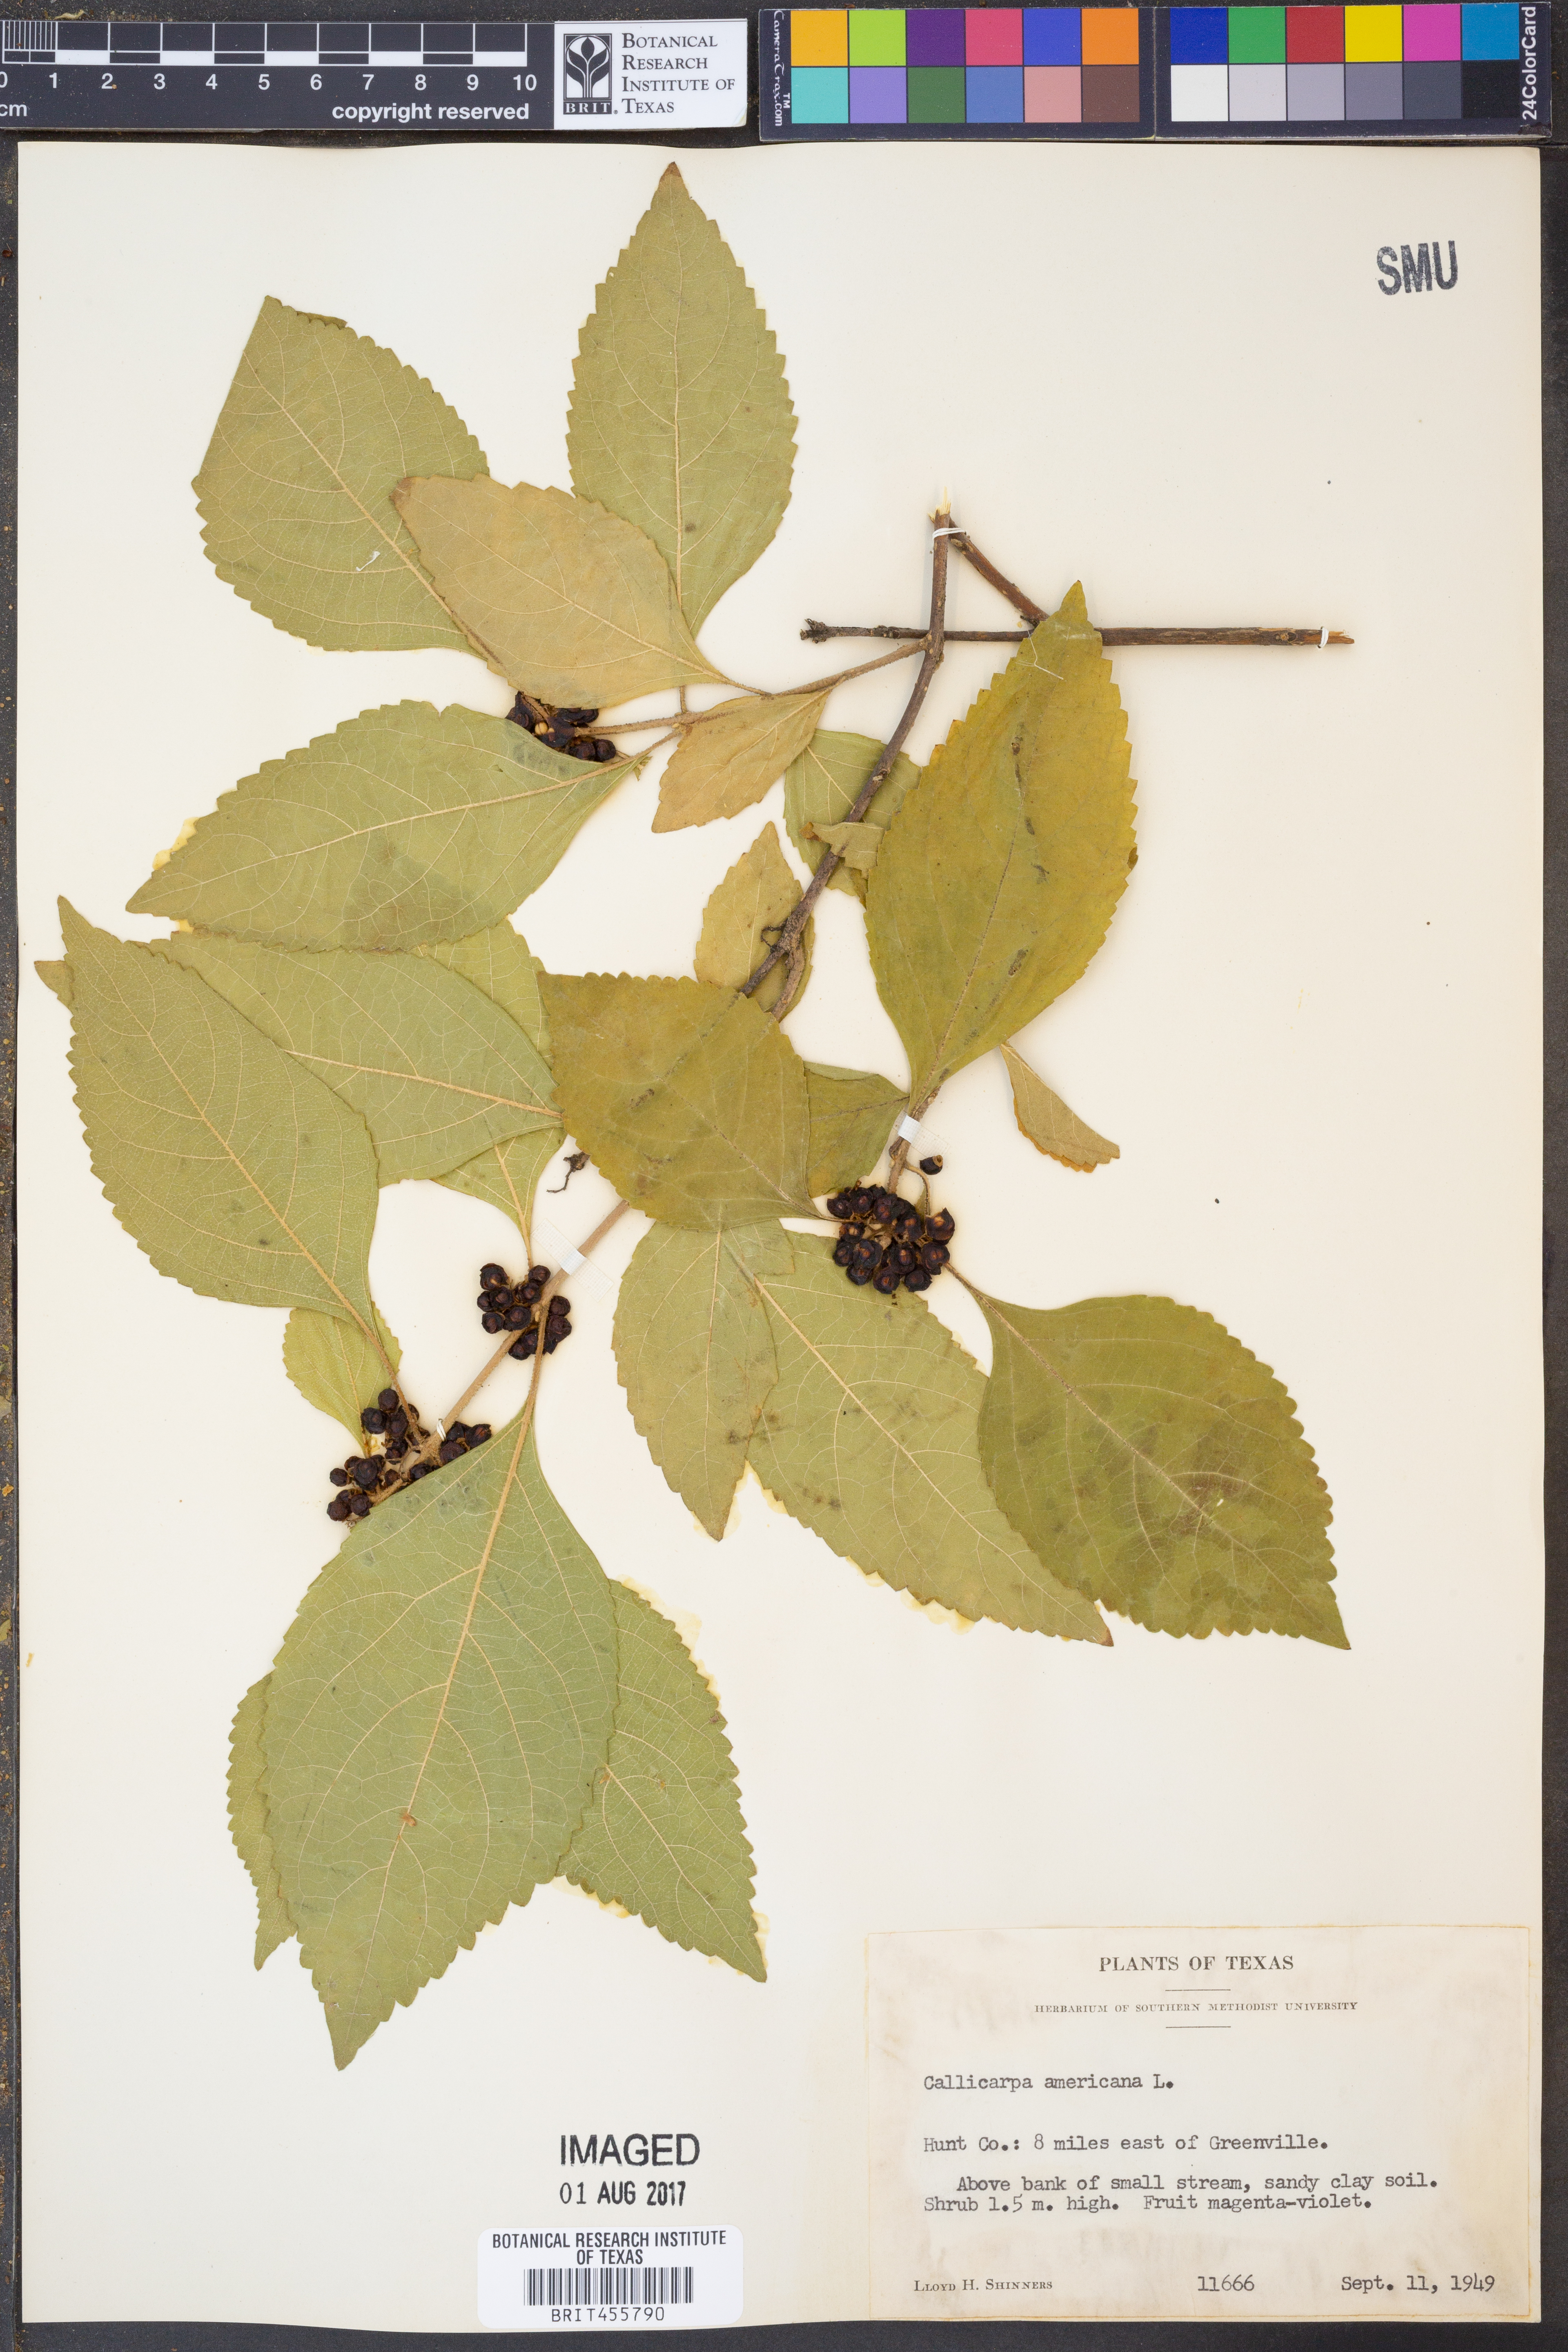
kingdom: Plantae
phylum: Tracheophyta
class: Magnoliopsida
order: Lamiales
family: Lamiaceae
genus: Callicarpa
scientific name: Callicarpa americana
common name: American beautyberry
